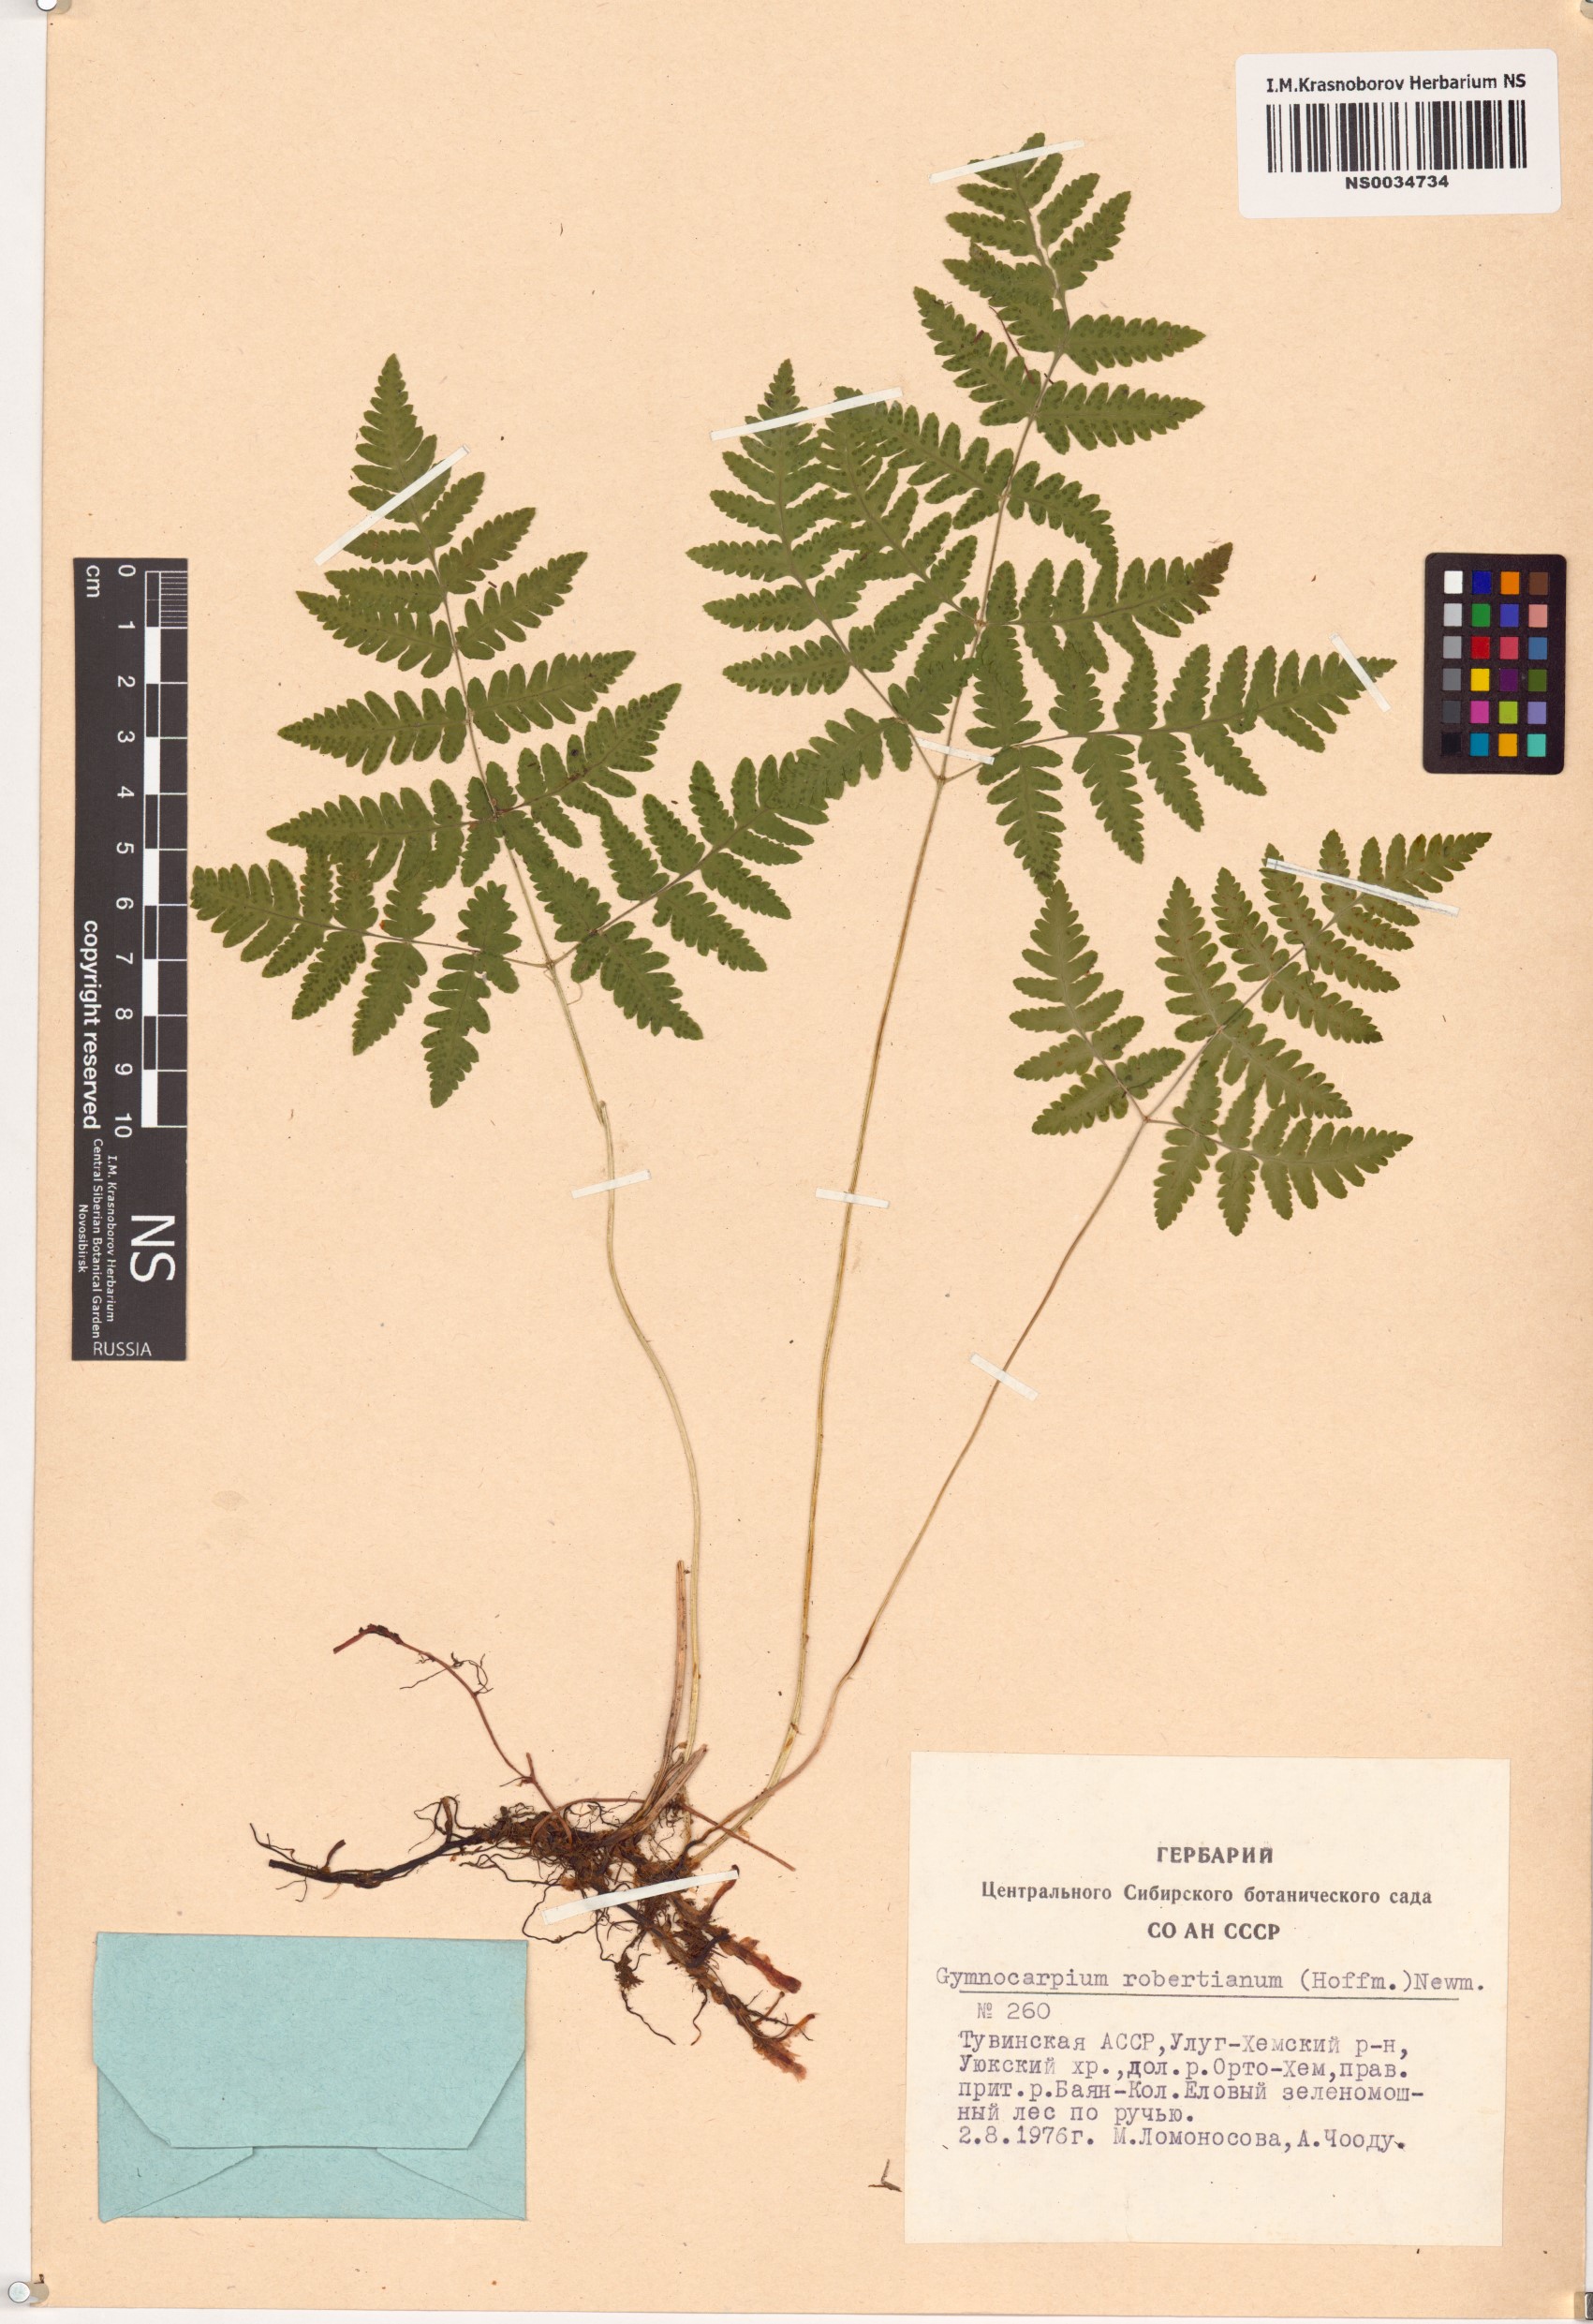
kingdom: Plantae
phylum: Tracheophyta
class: Polypodiopsida
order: Polypodiales
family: Cystopteridaceae
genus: Gymnocarpium
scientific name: Gymnocarpium robertianum
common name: Limestone fern
